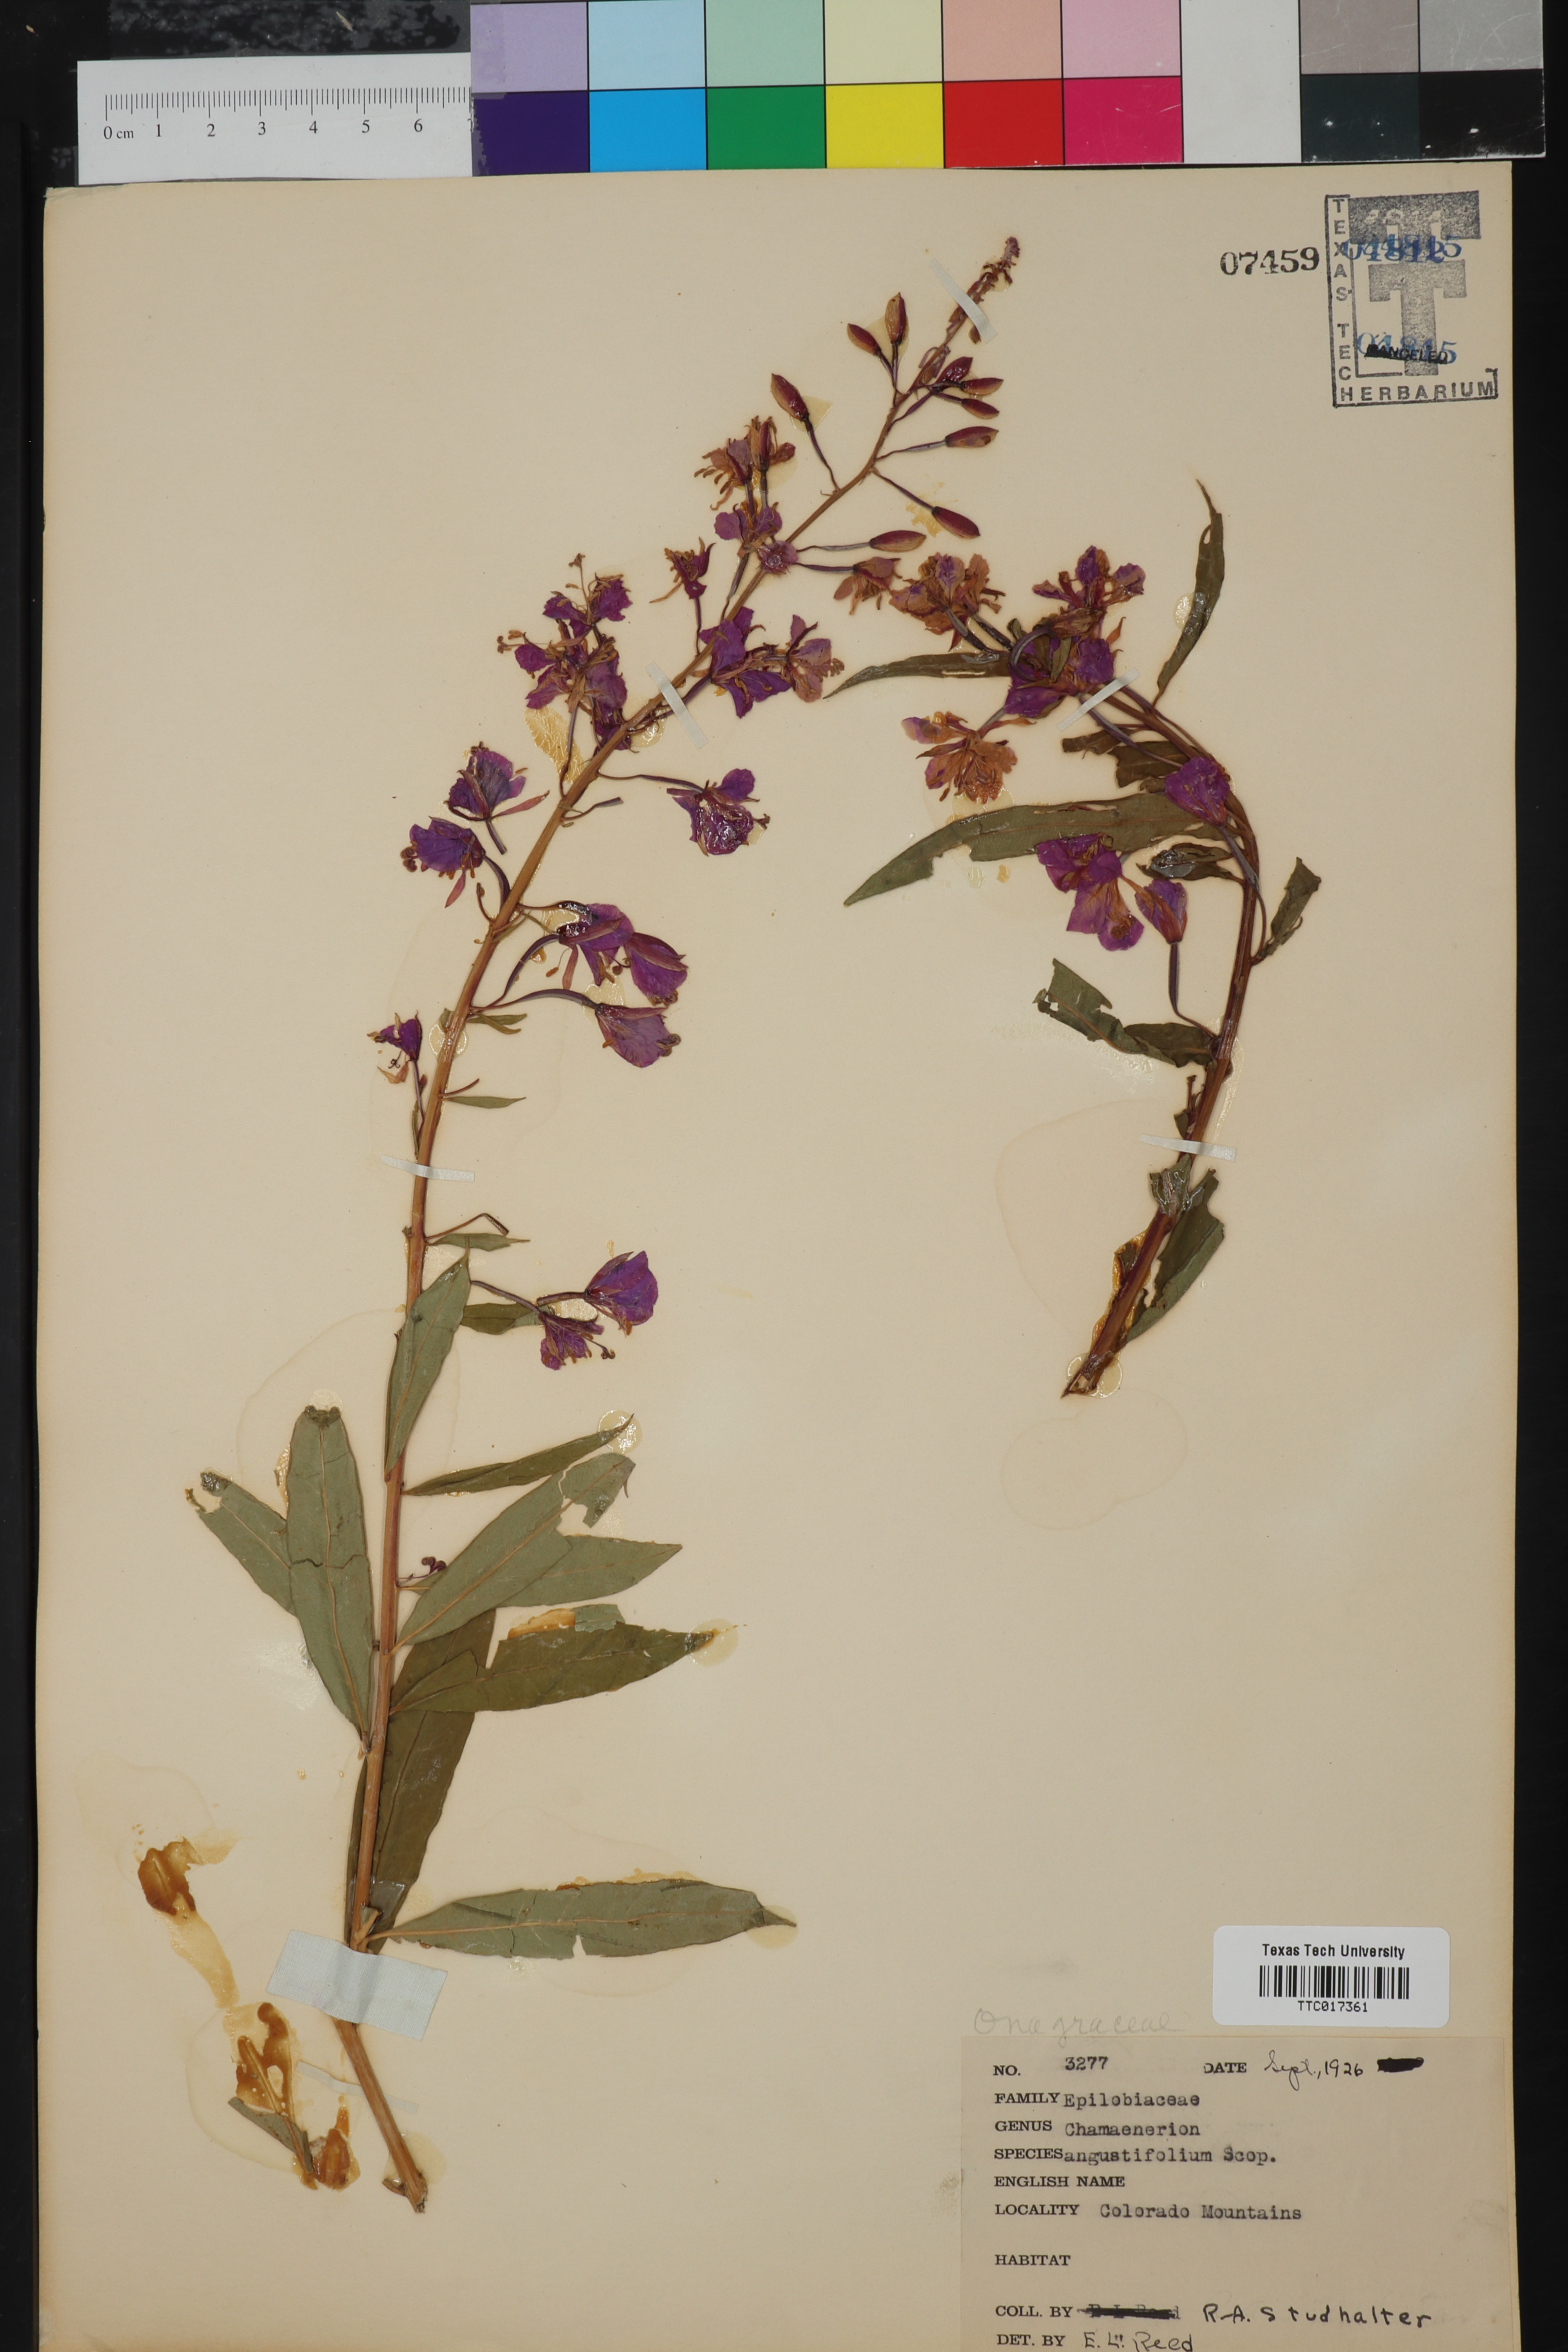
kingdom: Plantae
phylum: Tracheophyta
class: Magnoliopsida
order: Myrtales
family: Onagraceae
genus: Chamaenerion
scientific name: Chamaenerion angustifolium
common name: Fireweed
